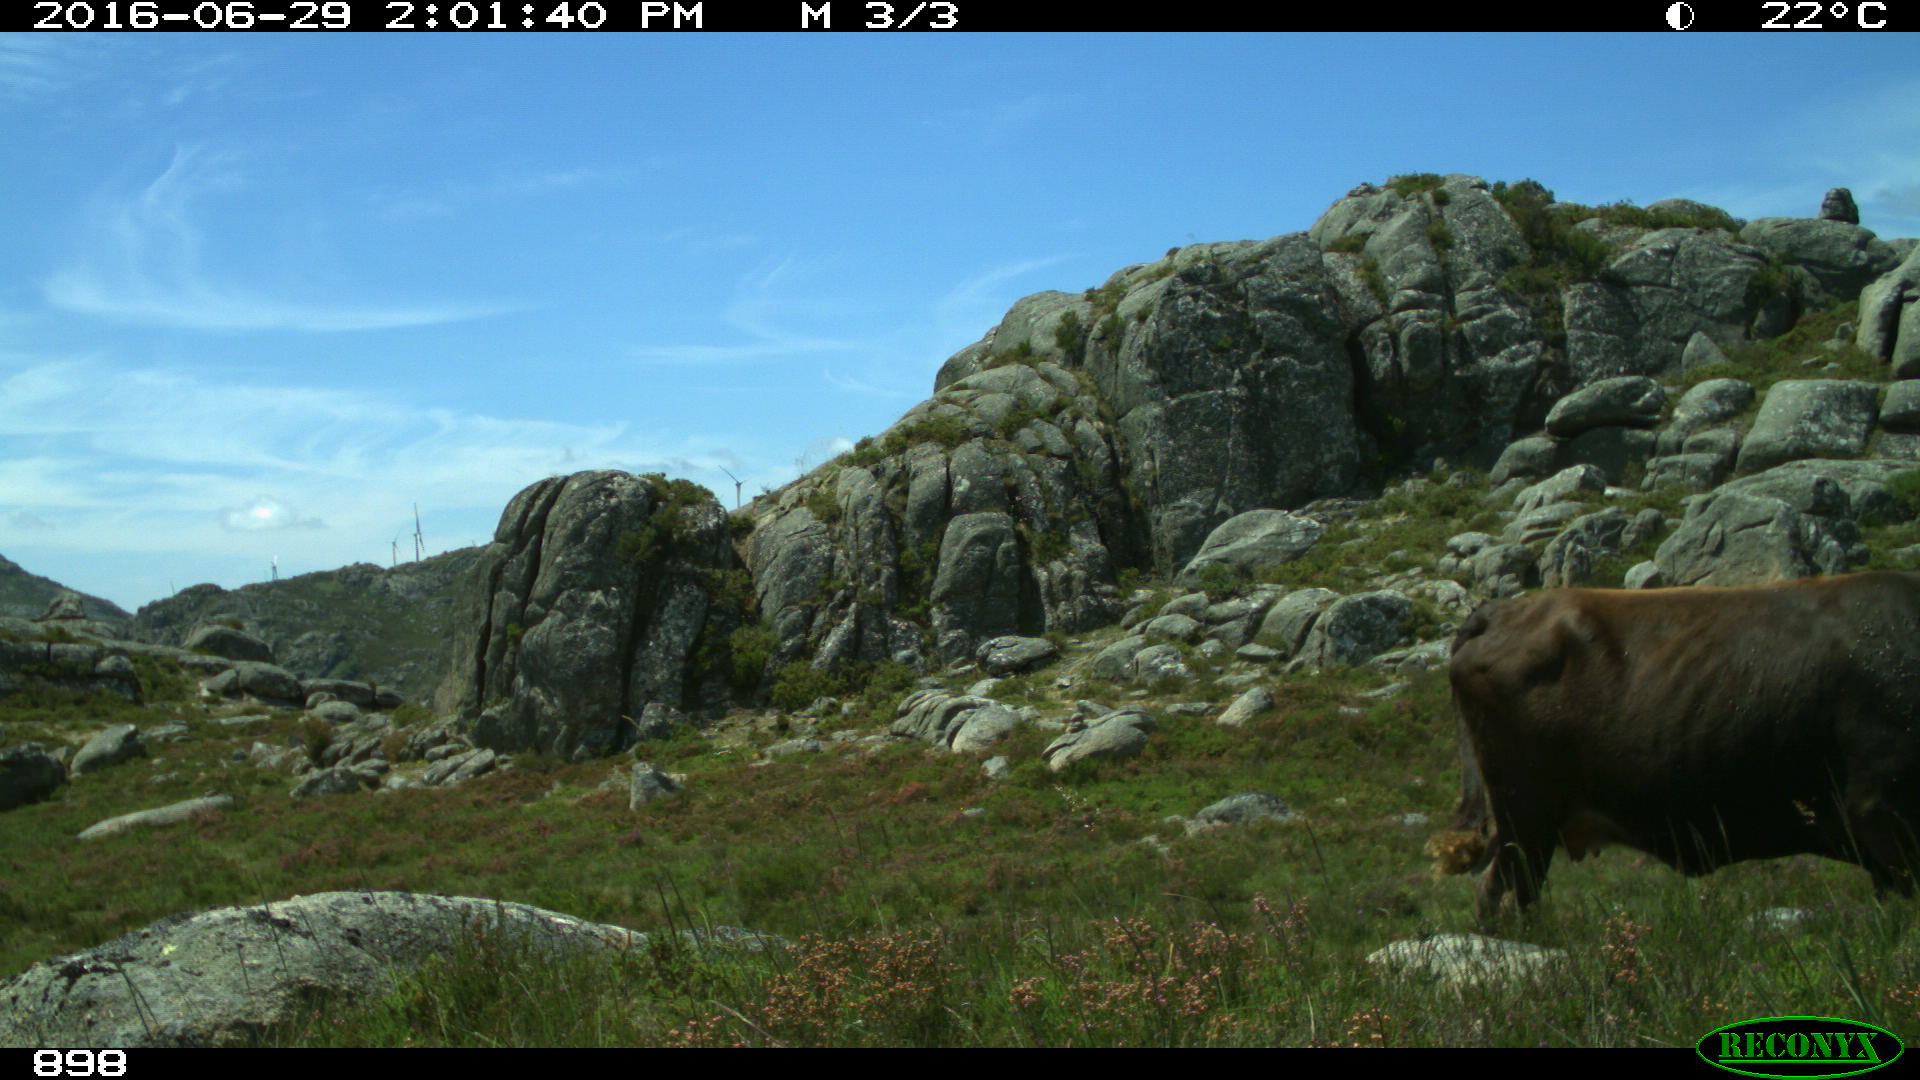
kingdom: Animalia
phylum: Chordata
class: Mammalia
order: Artiodactyla
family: Bovidae
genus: Bos
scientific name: Bos taurus
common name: Domesticated cattle
